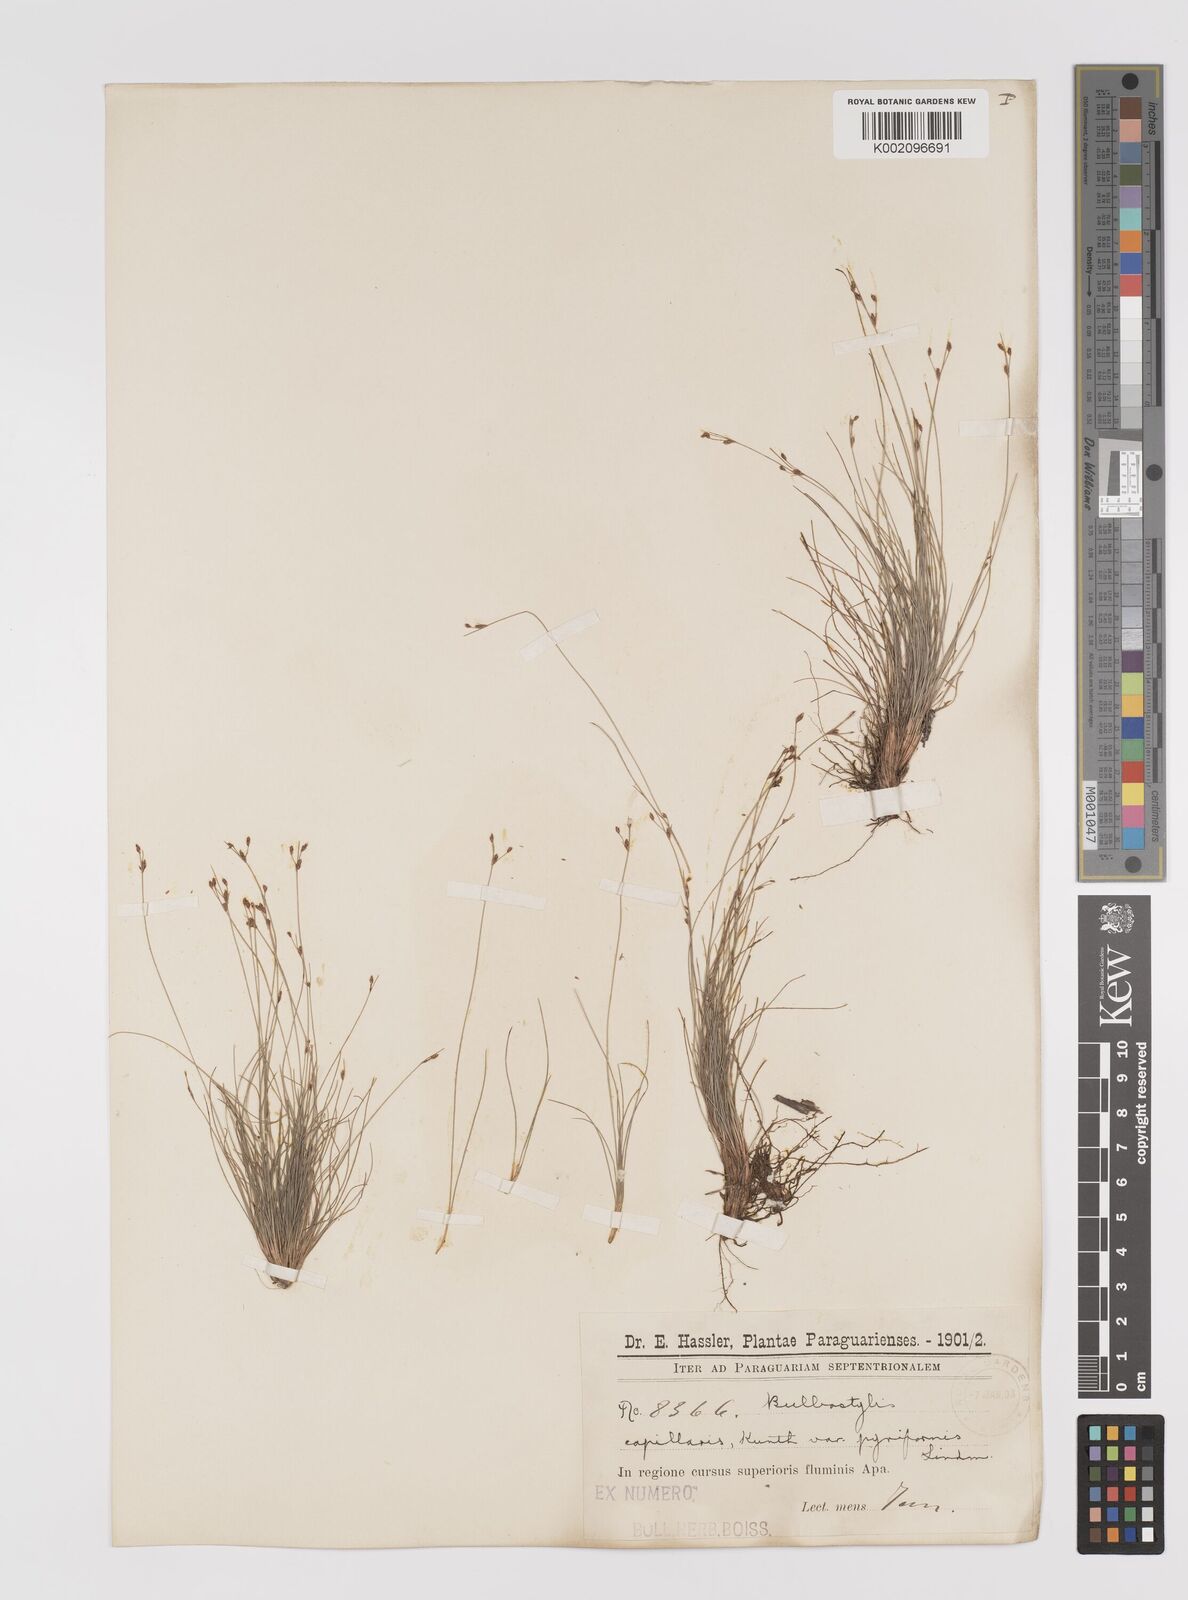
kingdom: Plantae
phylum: Tracheophyta
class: Liliopsida
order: Poales
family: Cyperaceae
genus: Bulbostylis
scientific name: Bulbostylis capillaris
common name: Densetuft hairsedge
